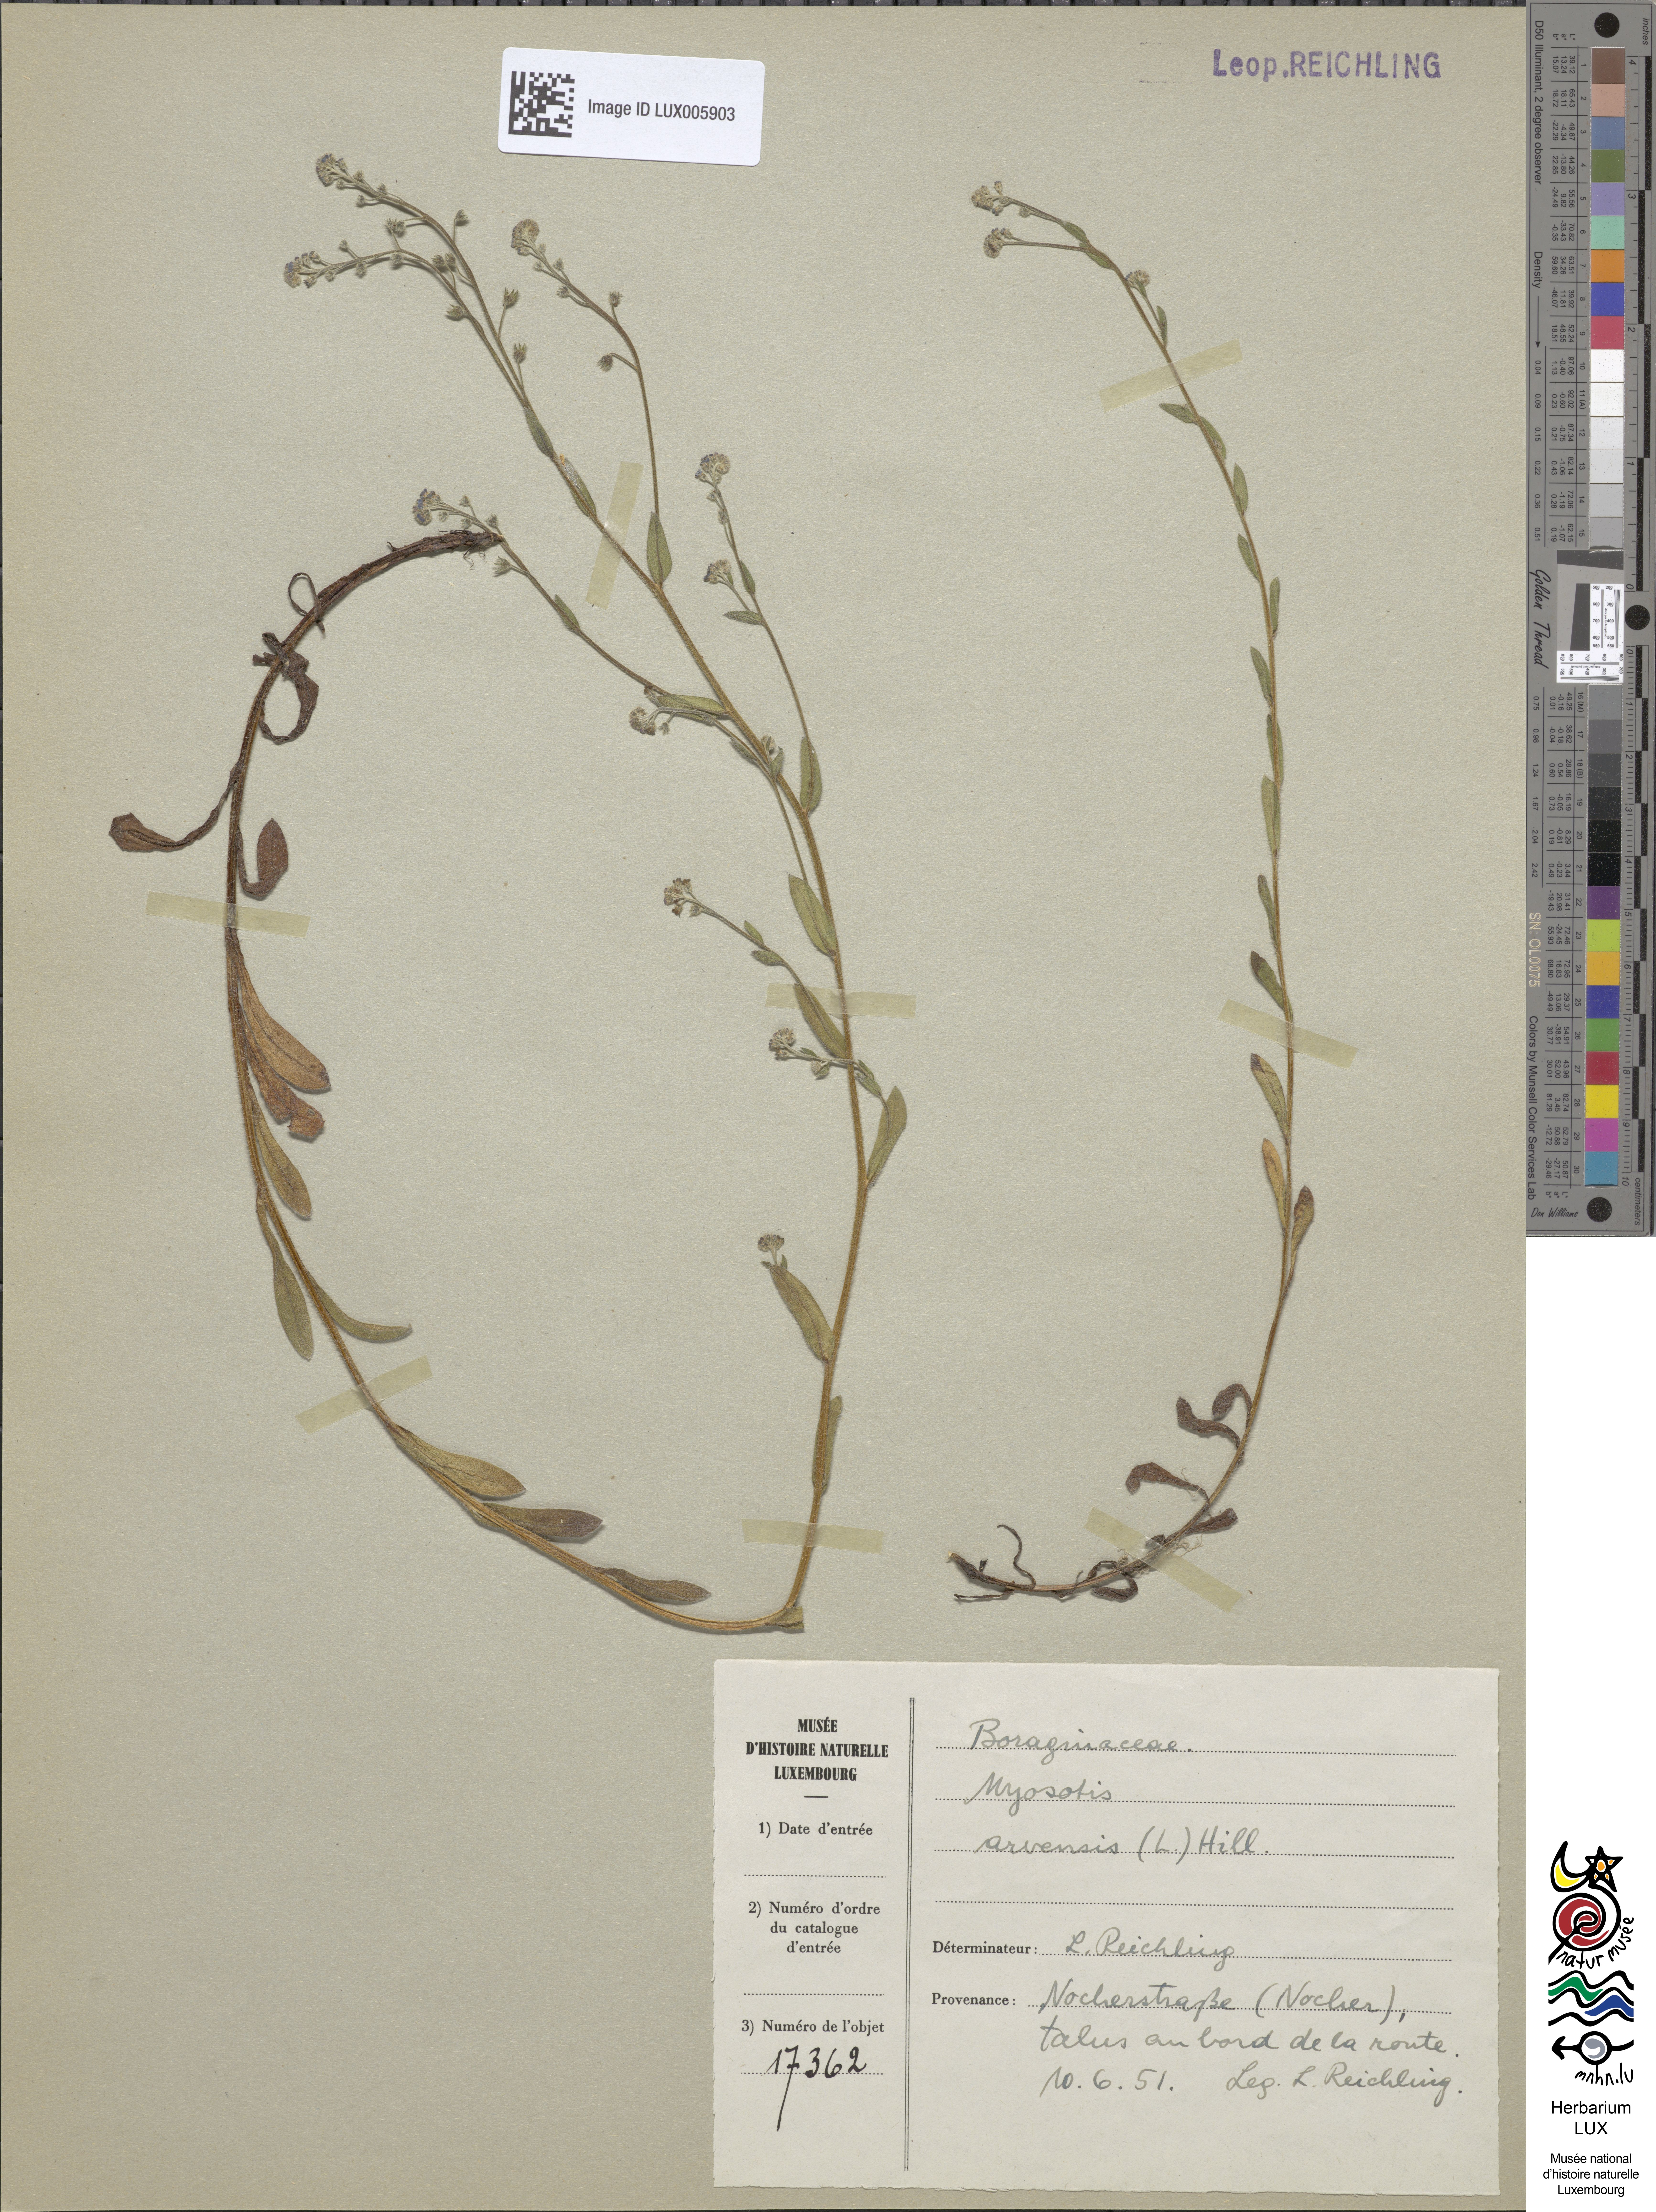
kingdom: Plantae
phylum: Tracheophyta
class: Magnoliopsida
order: Boraginales
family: Boraginaceae
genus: Myosotis
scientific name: Myosotis arvensis
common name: Field forget-me-not
